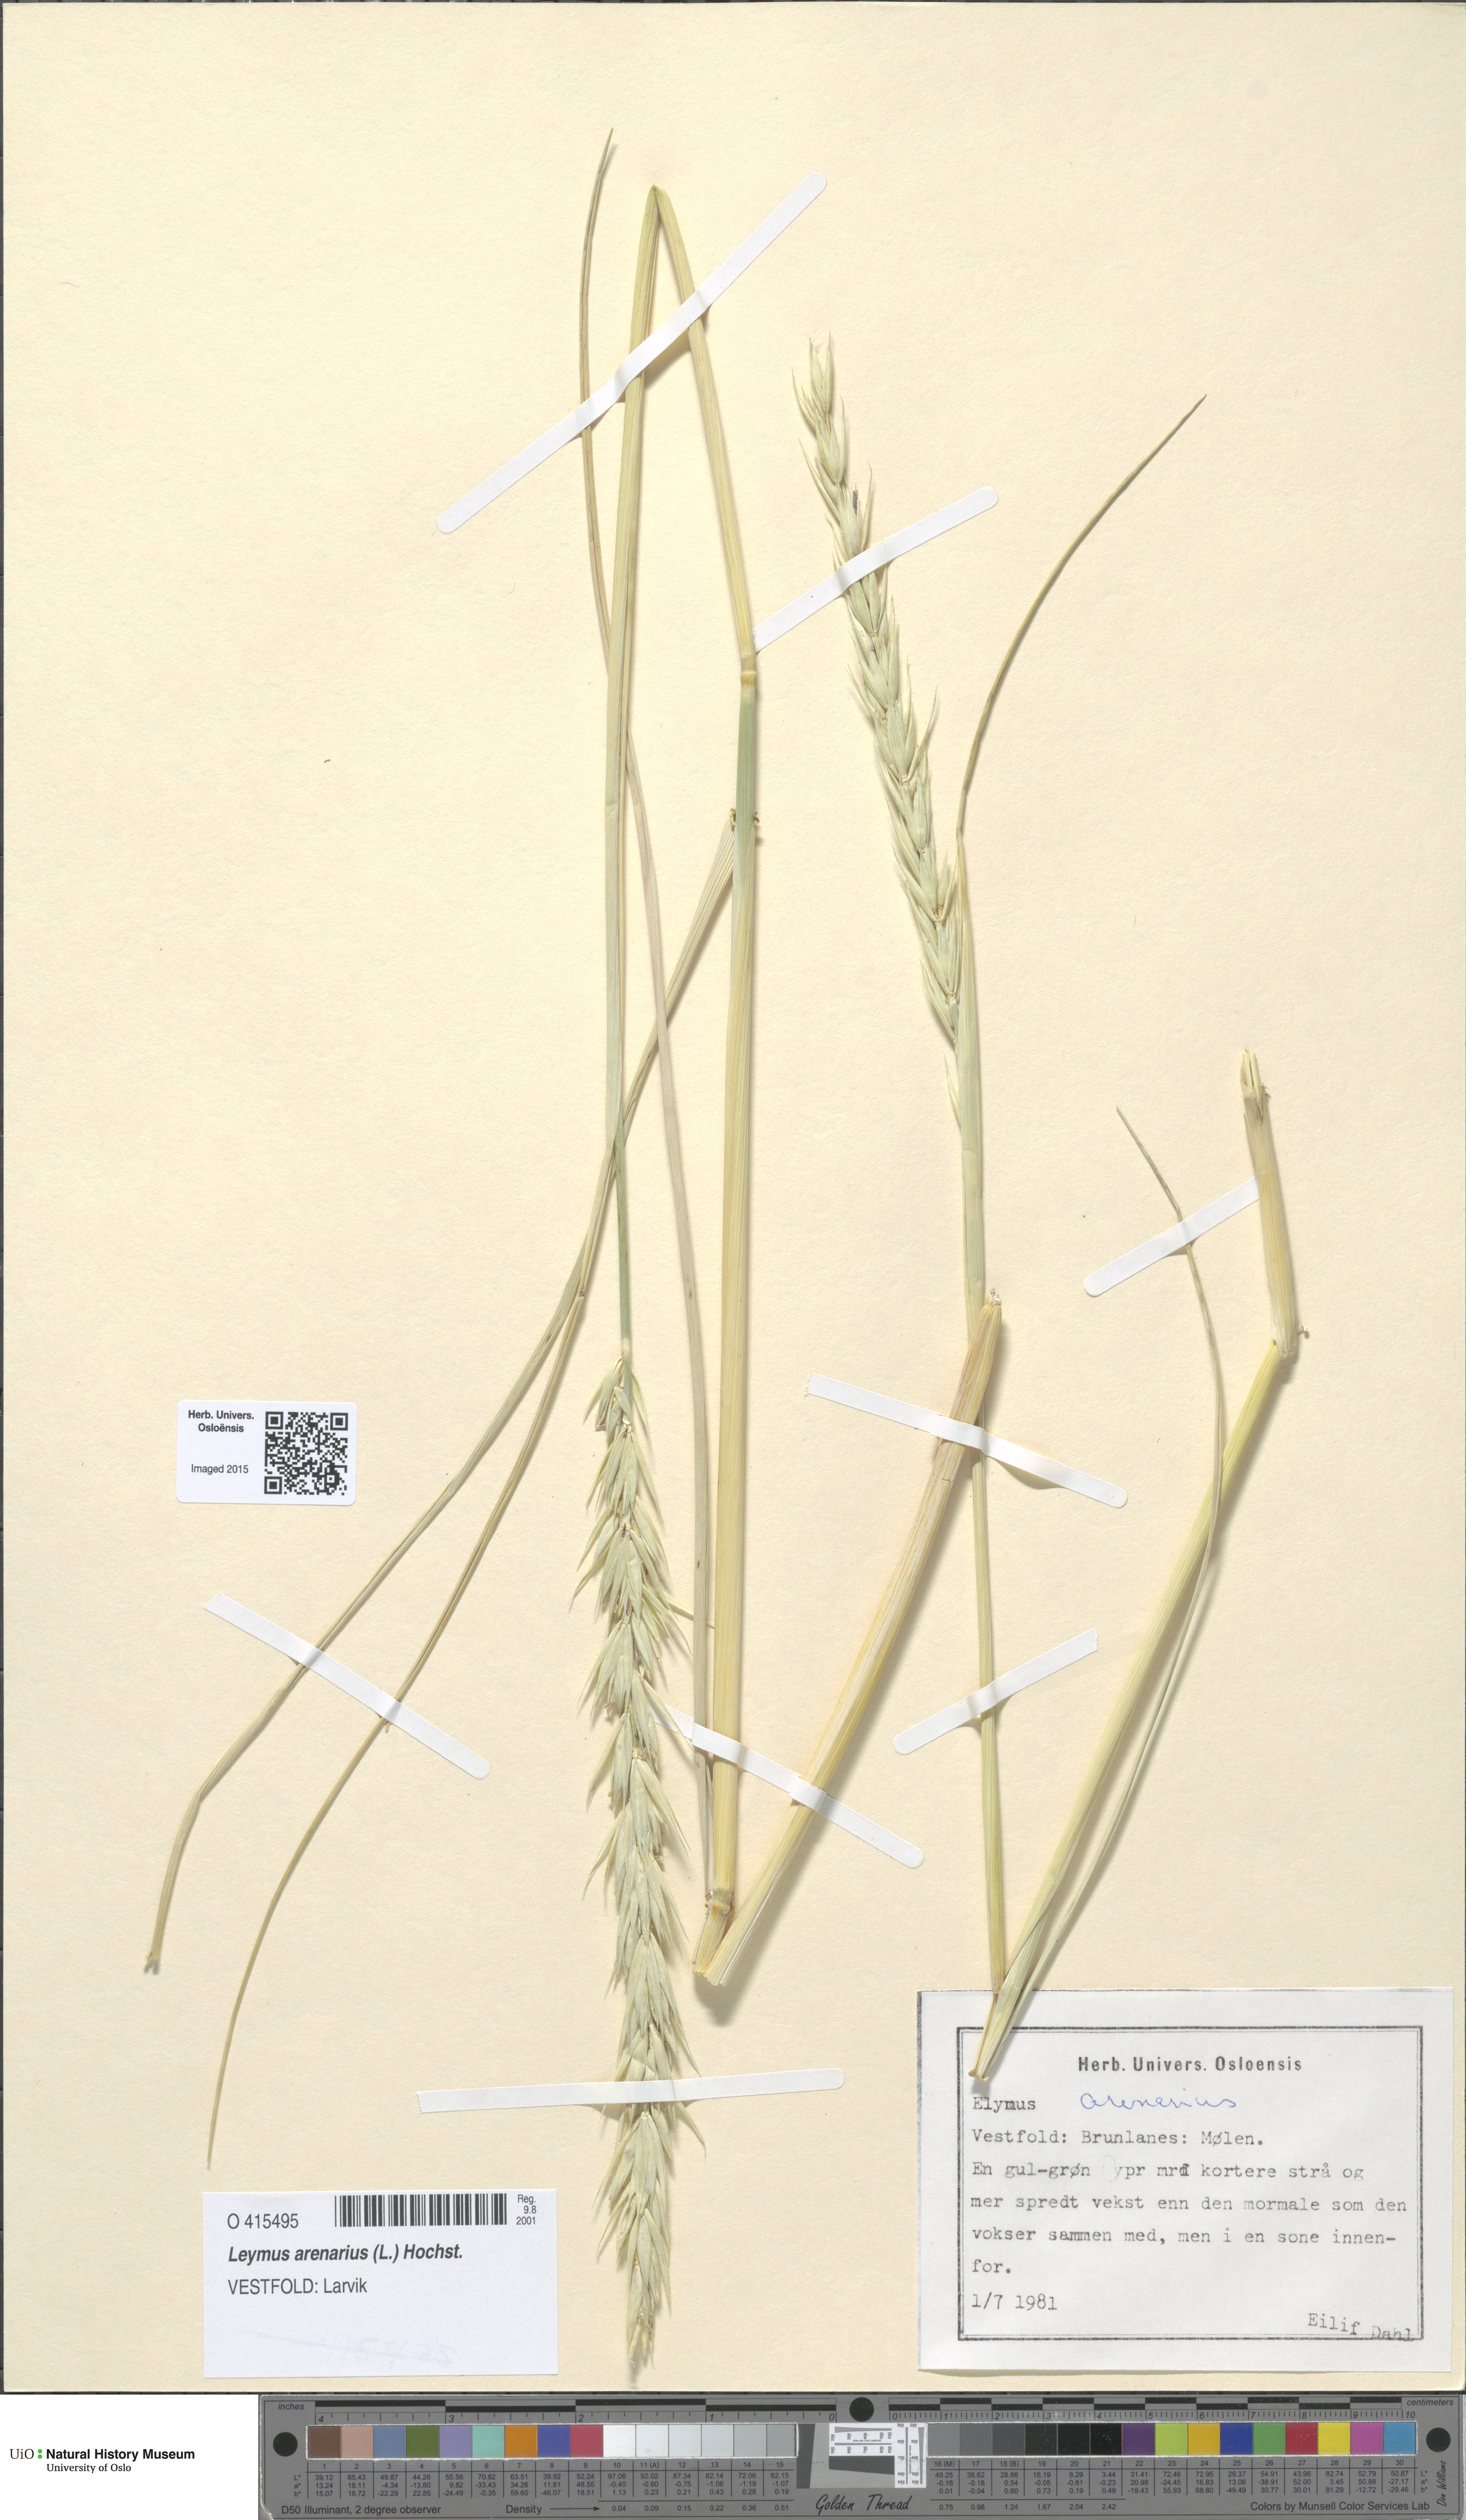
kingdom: Plantae
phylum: Tracheophyta
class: Liliopsida
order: Poales
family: Poaceae
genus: Leymus
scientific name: Leymus arenarius
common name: Lyme-grass
